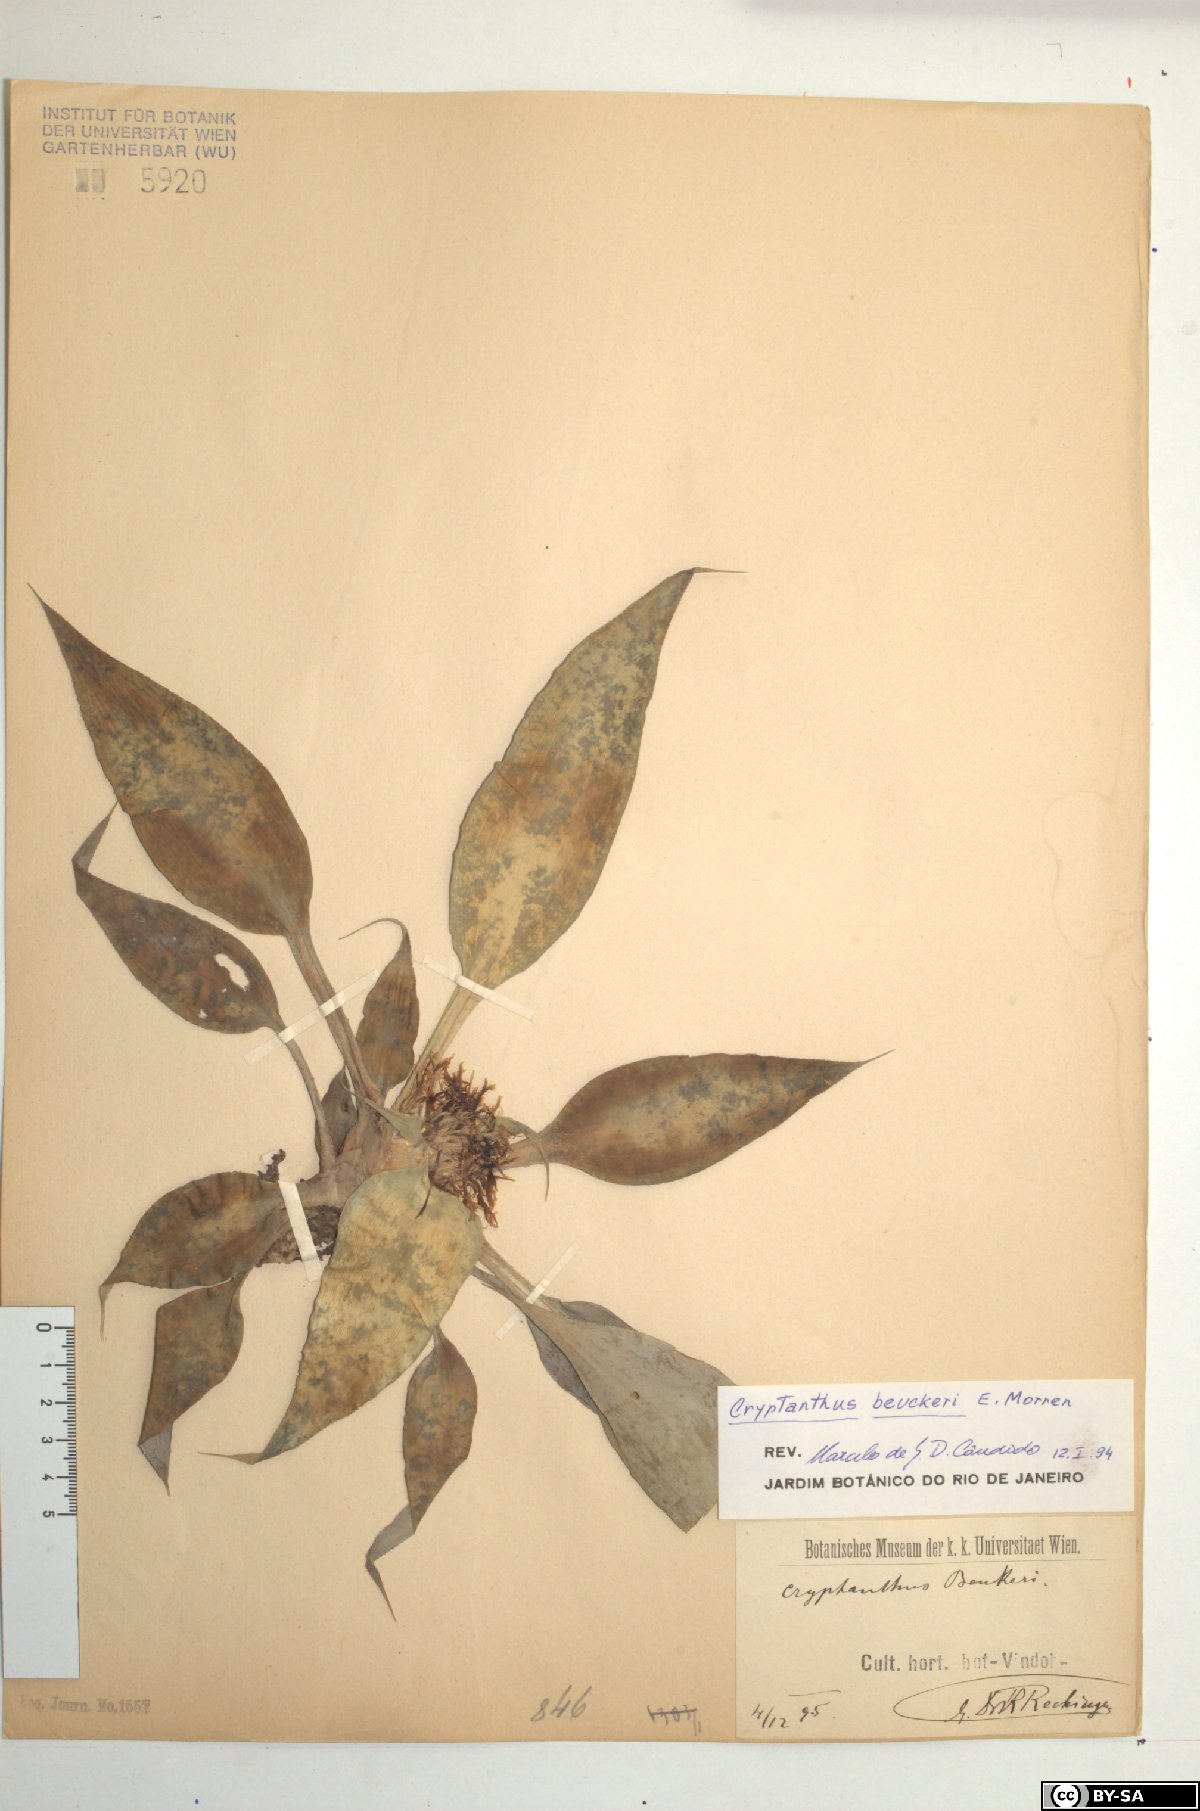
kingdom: Plantae
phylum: Tracheophyta
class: Liliopsida
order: Poales
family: Bromeliaceae
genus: Cryptanthus
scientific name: Cryptanthus beuckeri
